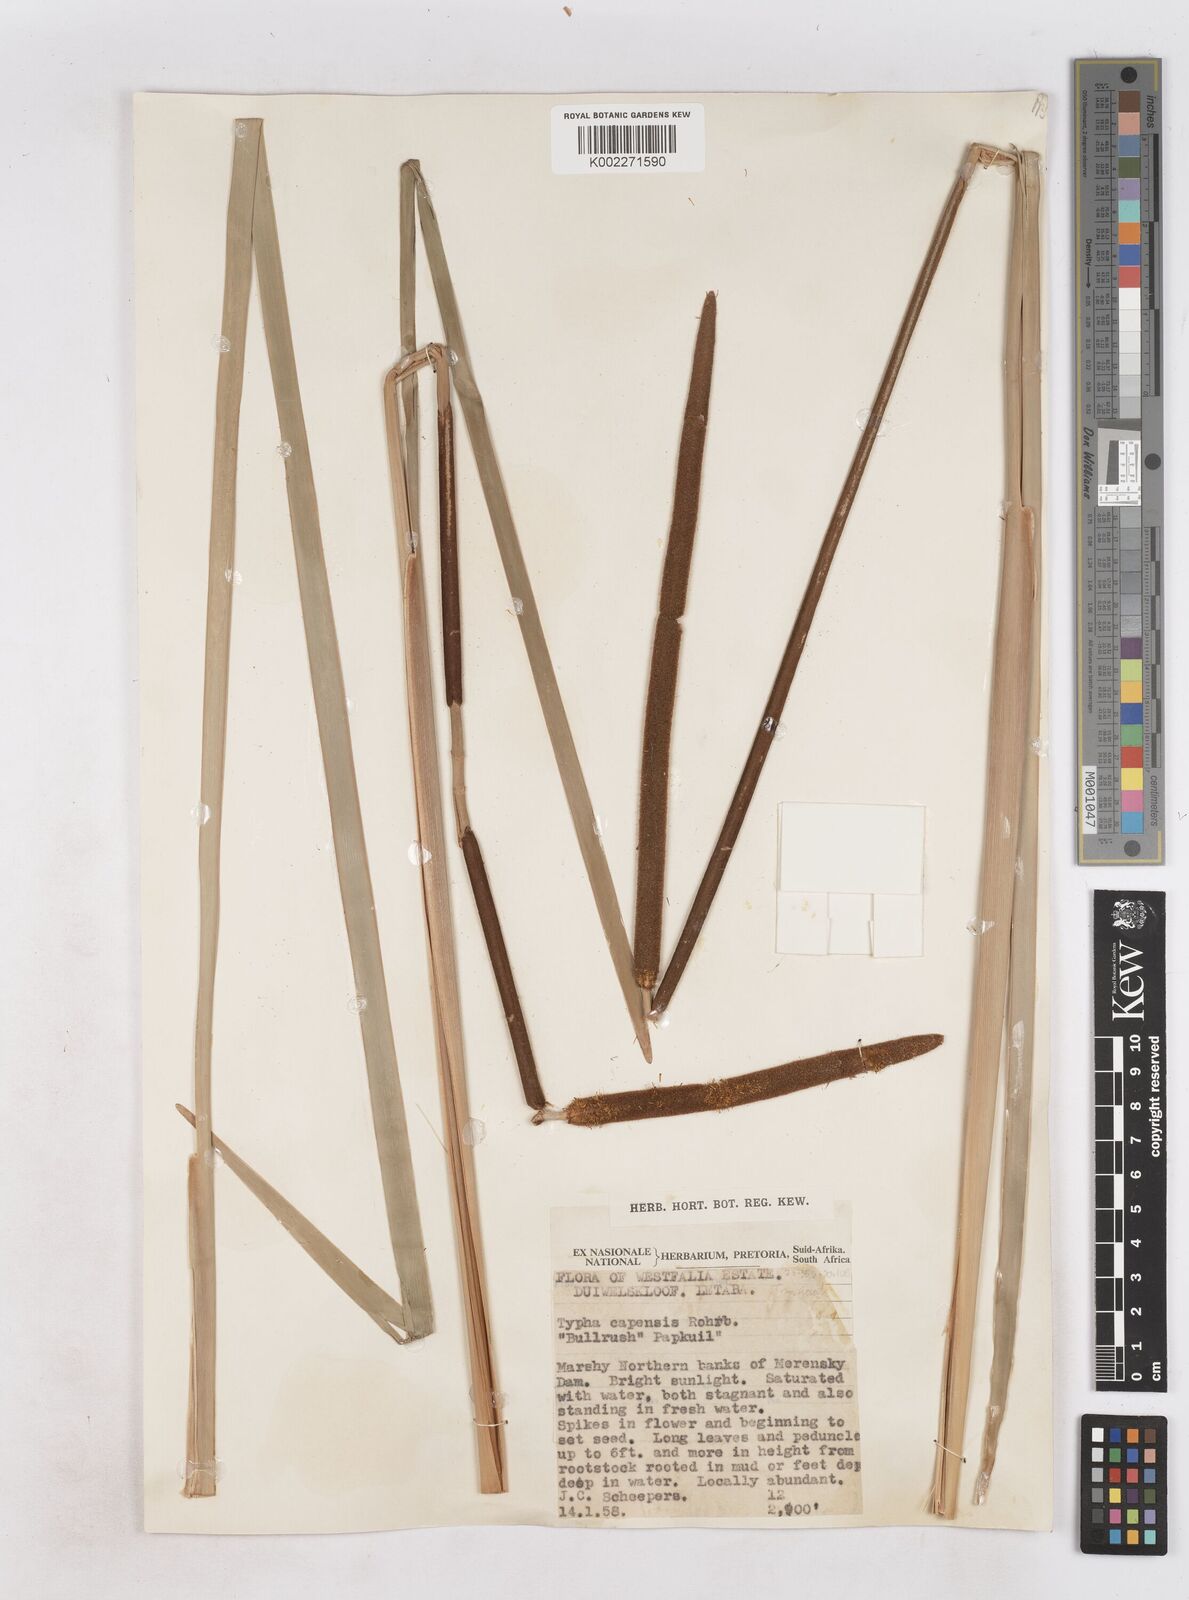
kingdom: Plantae
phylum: Tracheophyta
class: Liliopsida
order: Poales
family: Typhaceae
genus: Typha
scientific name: Typha capensis
